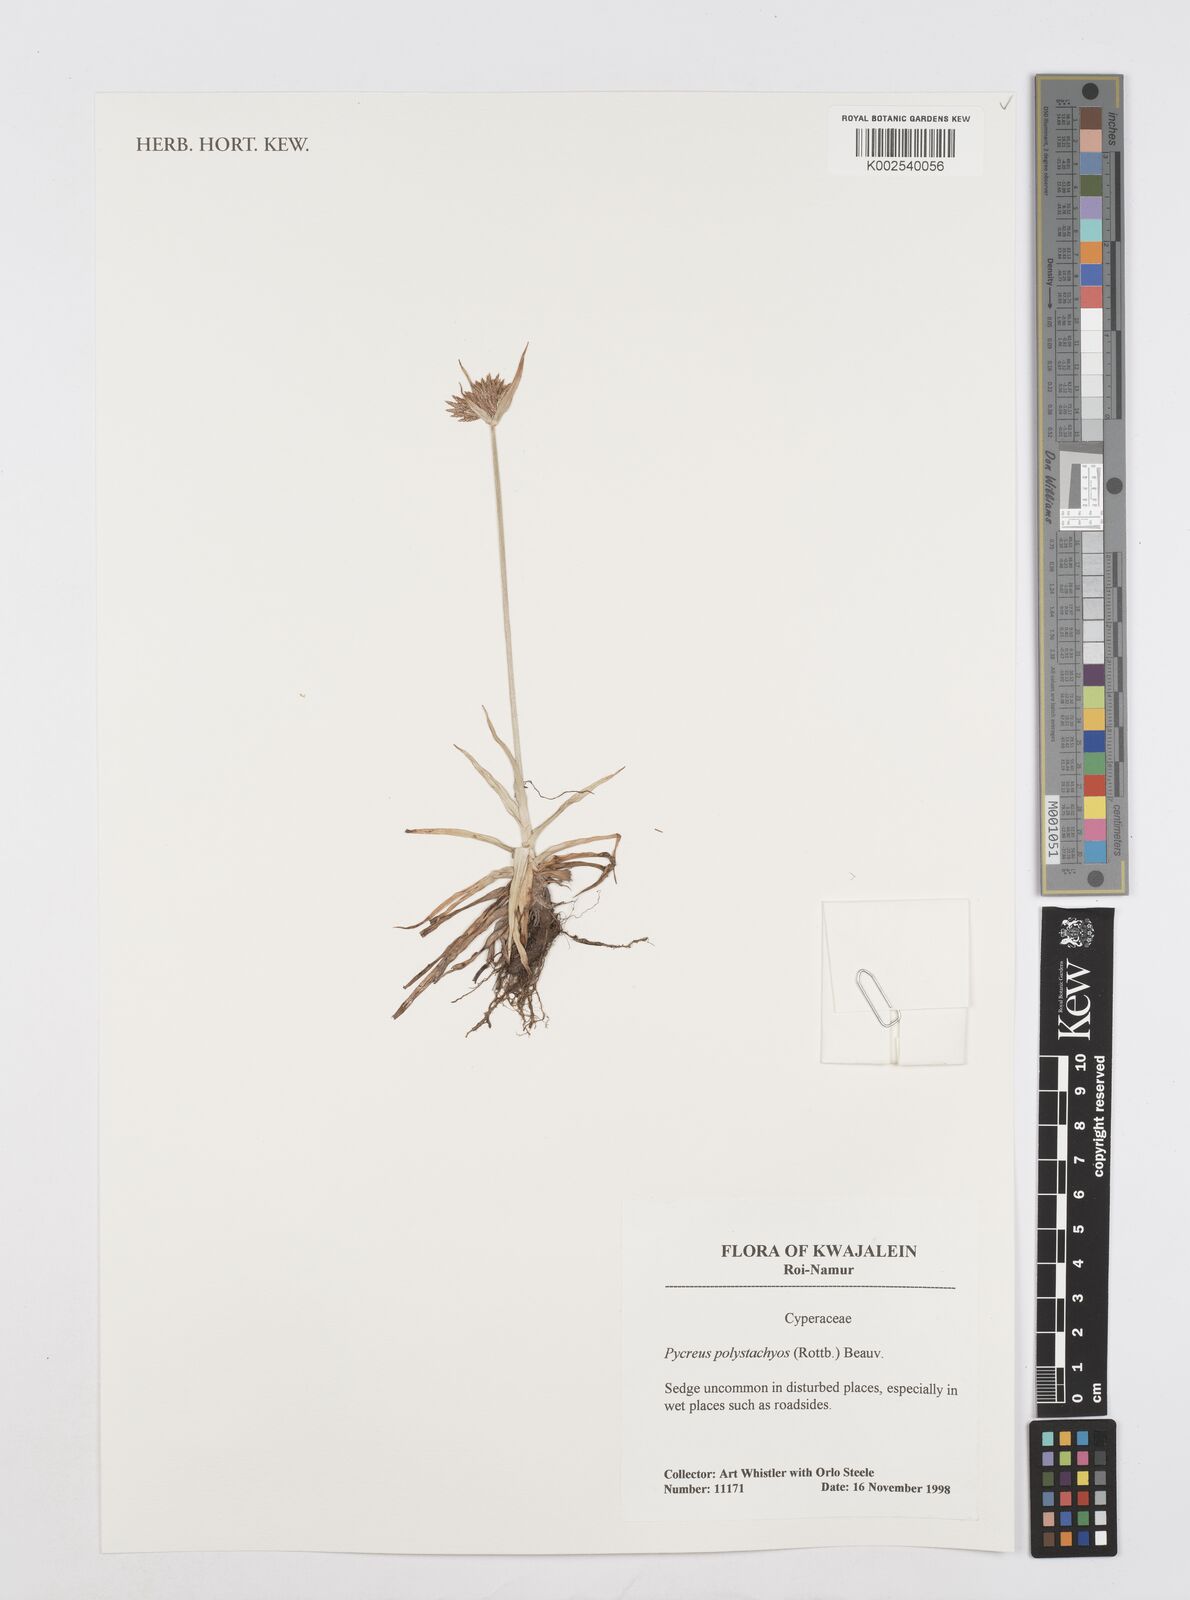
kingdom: Plantae
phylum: Tracheophyta
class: Liliopsida
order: Poales
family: Cyperaceae
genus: Cyperus
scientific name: Cyperus polystachyos
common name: Bunchy flat sedge
